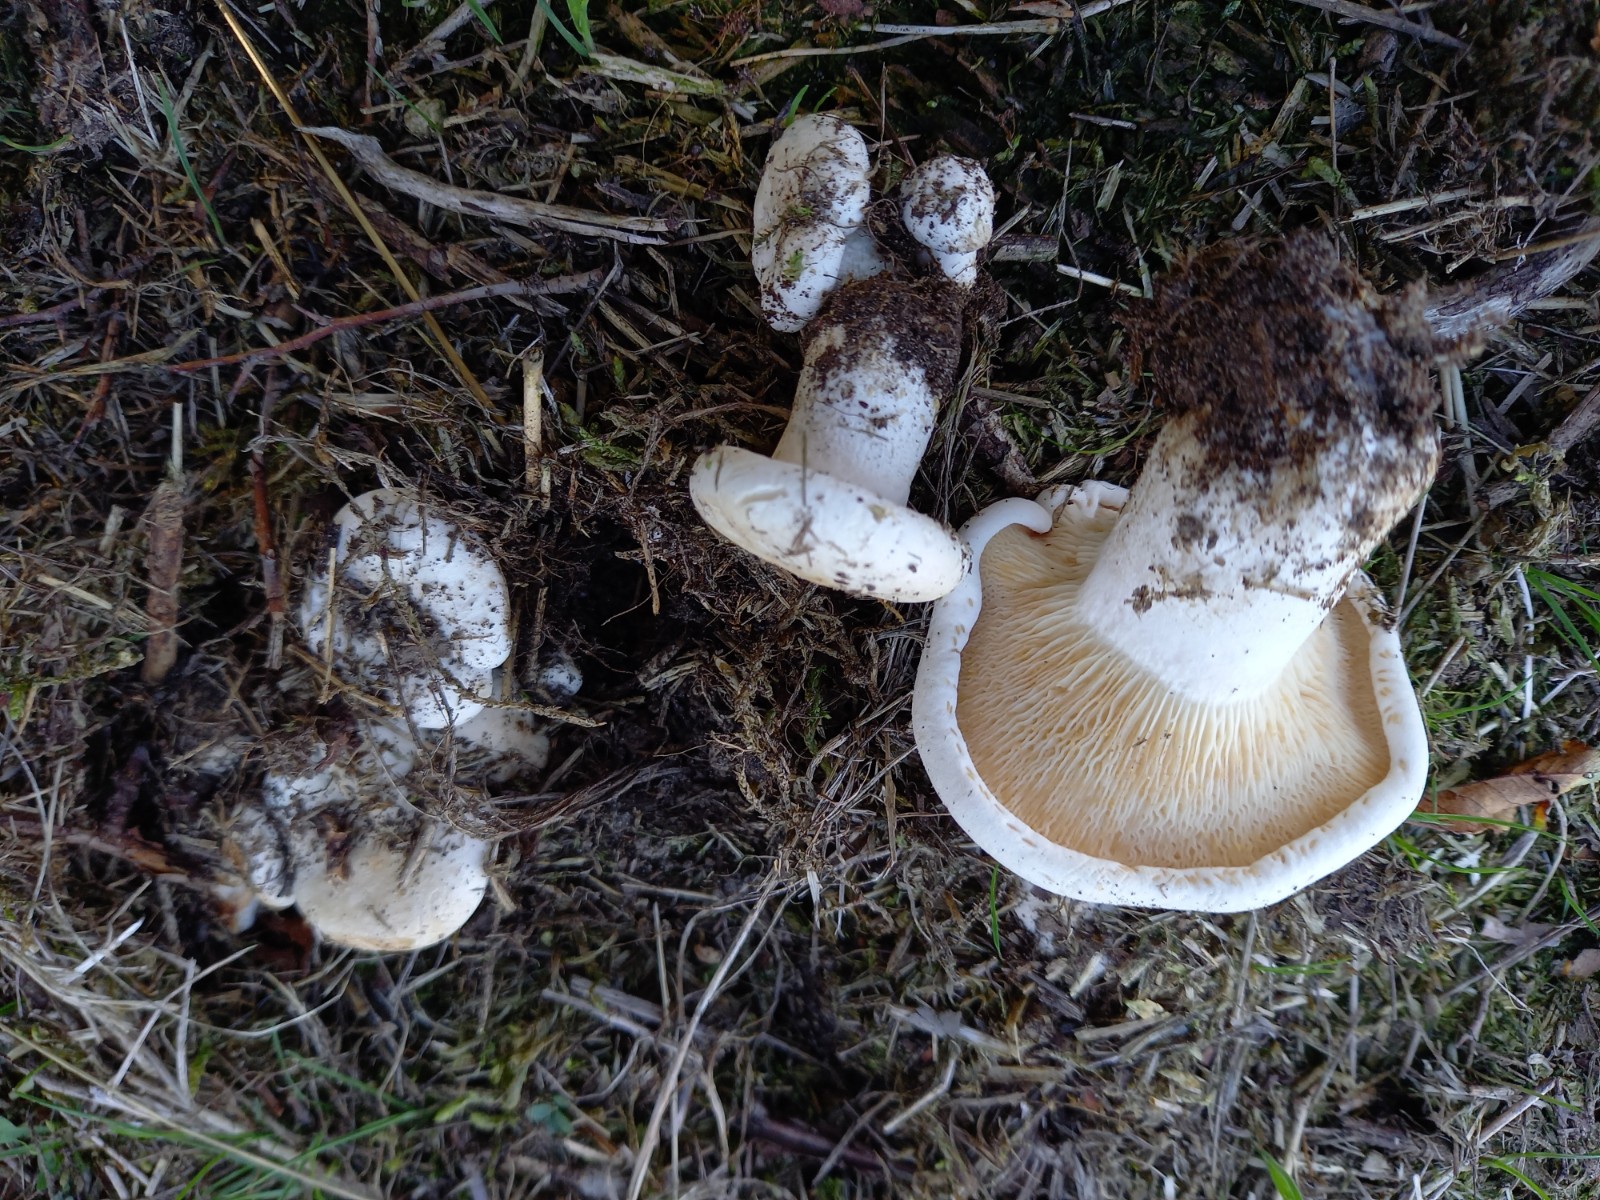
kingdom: Fungi
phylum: Basidiomycota
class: Agaricomycetes
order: Agaricales
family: Entolomataceae
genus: Clitopilus
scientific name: Clitopilus prunulus
